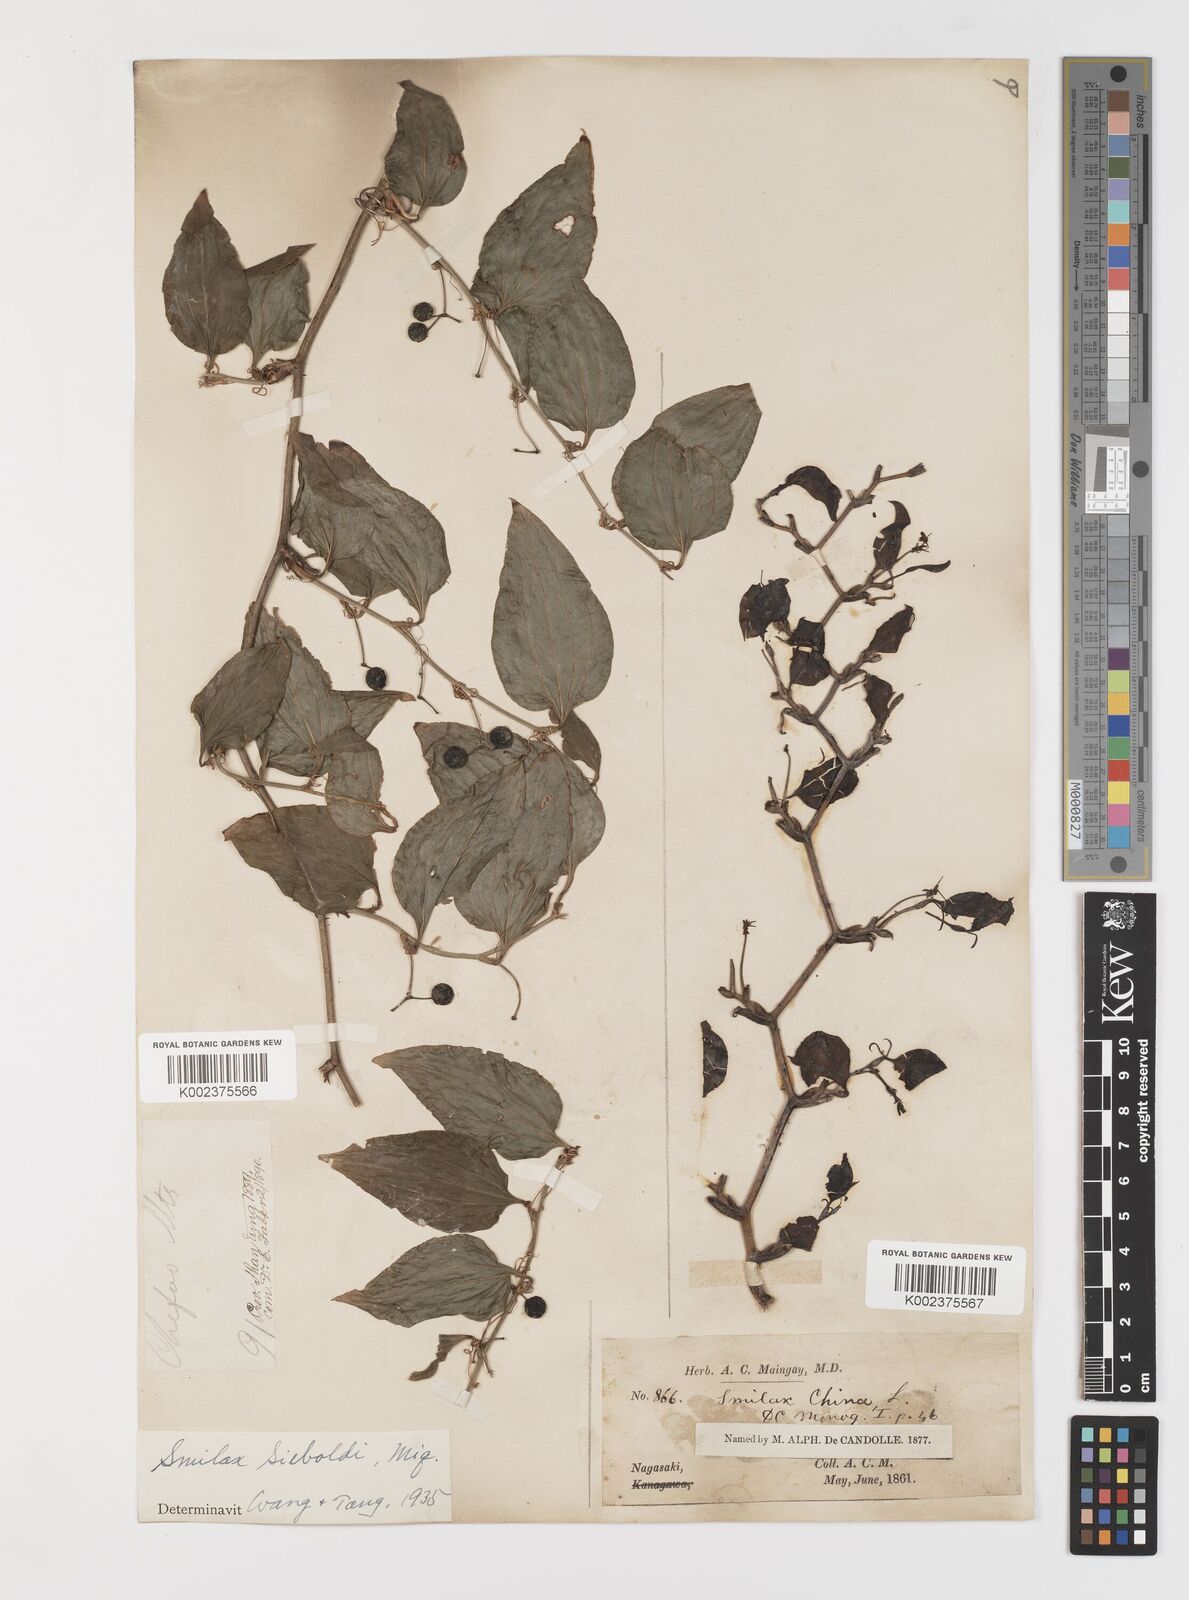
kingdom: Plantae
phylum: Tracheophyta
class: Liliopsida
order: Liliales
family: Smilacaceae
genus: Smilax
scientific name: Smilax sieboldii
